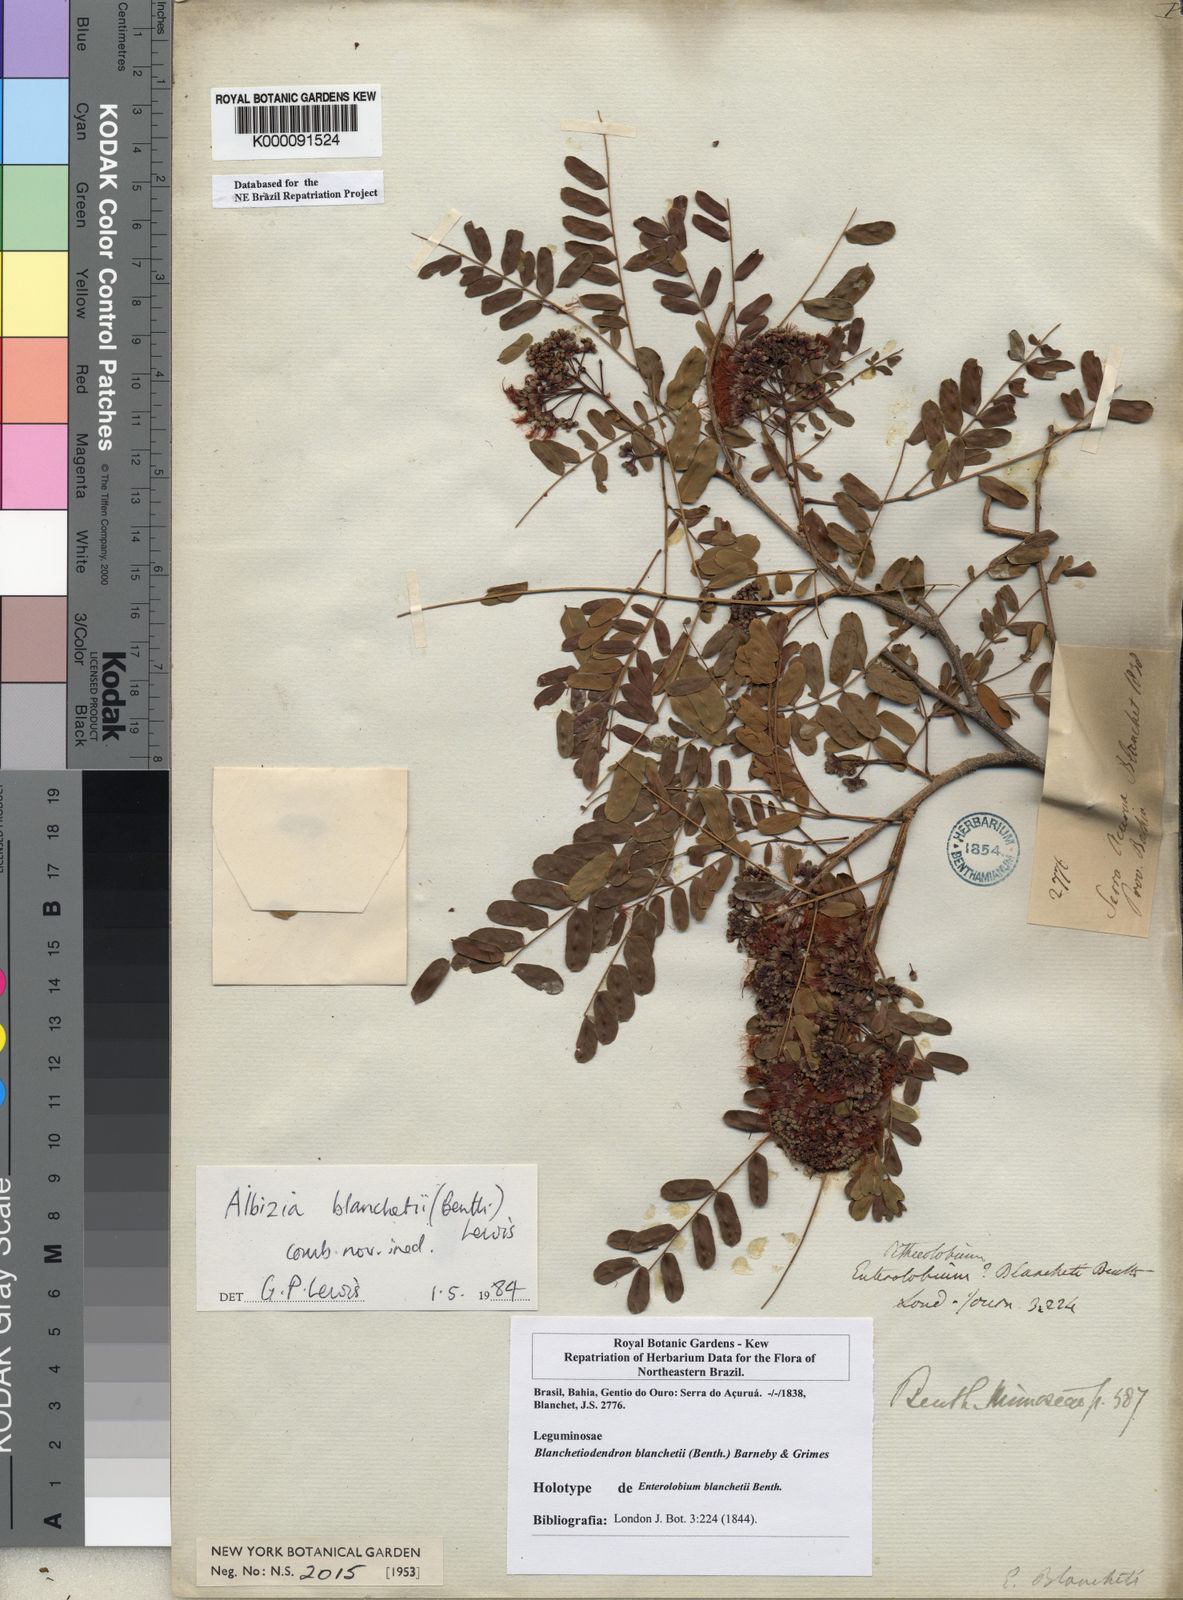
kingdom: Plantae
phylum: Tracheophyta
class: Magnoliopsida
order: Fabales
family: Fabaceae
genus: Blanchetiodendron
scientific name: Blanchetiodendron blanchetii
